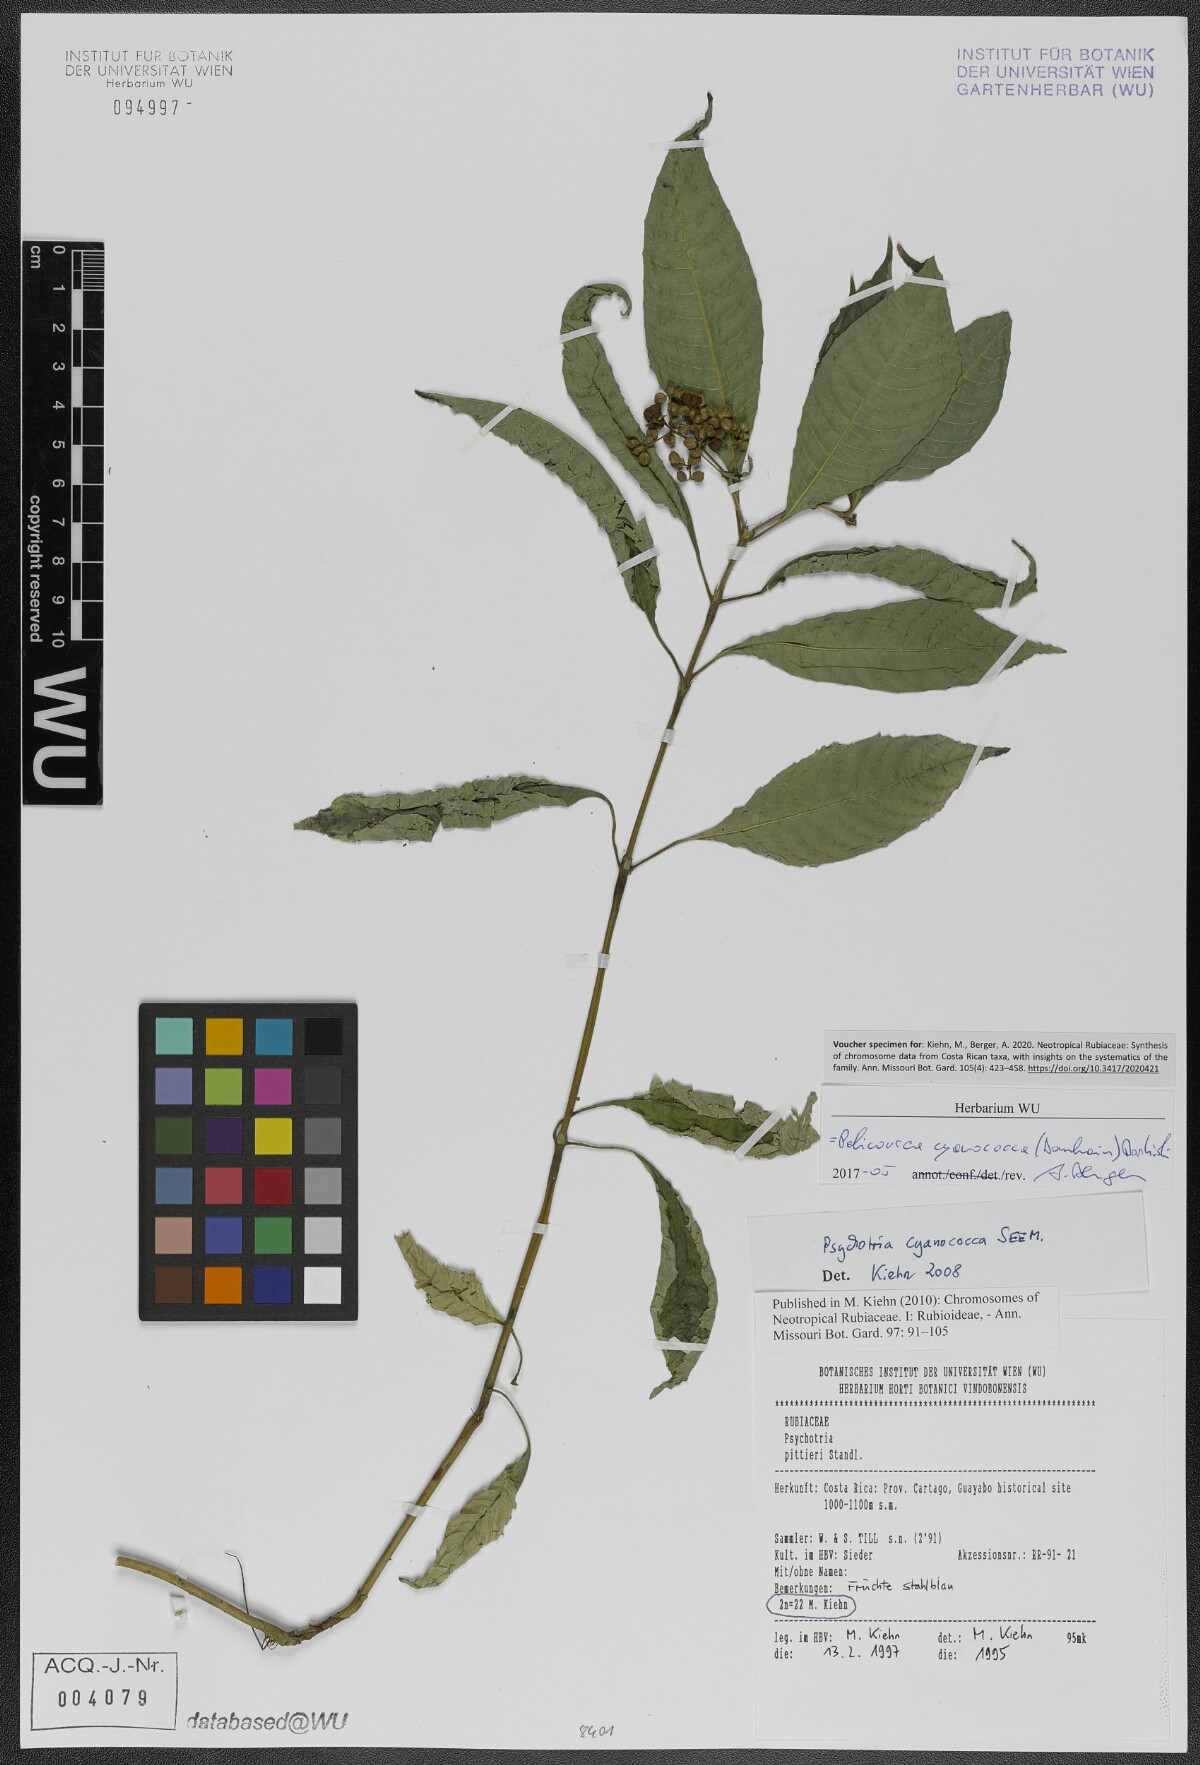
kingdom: Plantae
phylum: Tracheophyta
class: Magnoliopsida
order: Gentianales
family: Rubiaceae
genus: Palicourea
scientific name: Palicourea cyanococca
